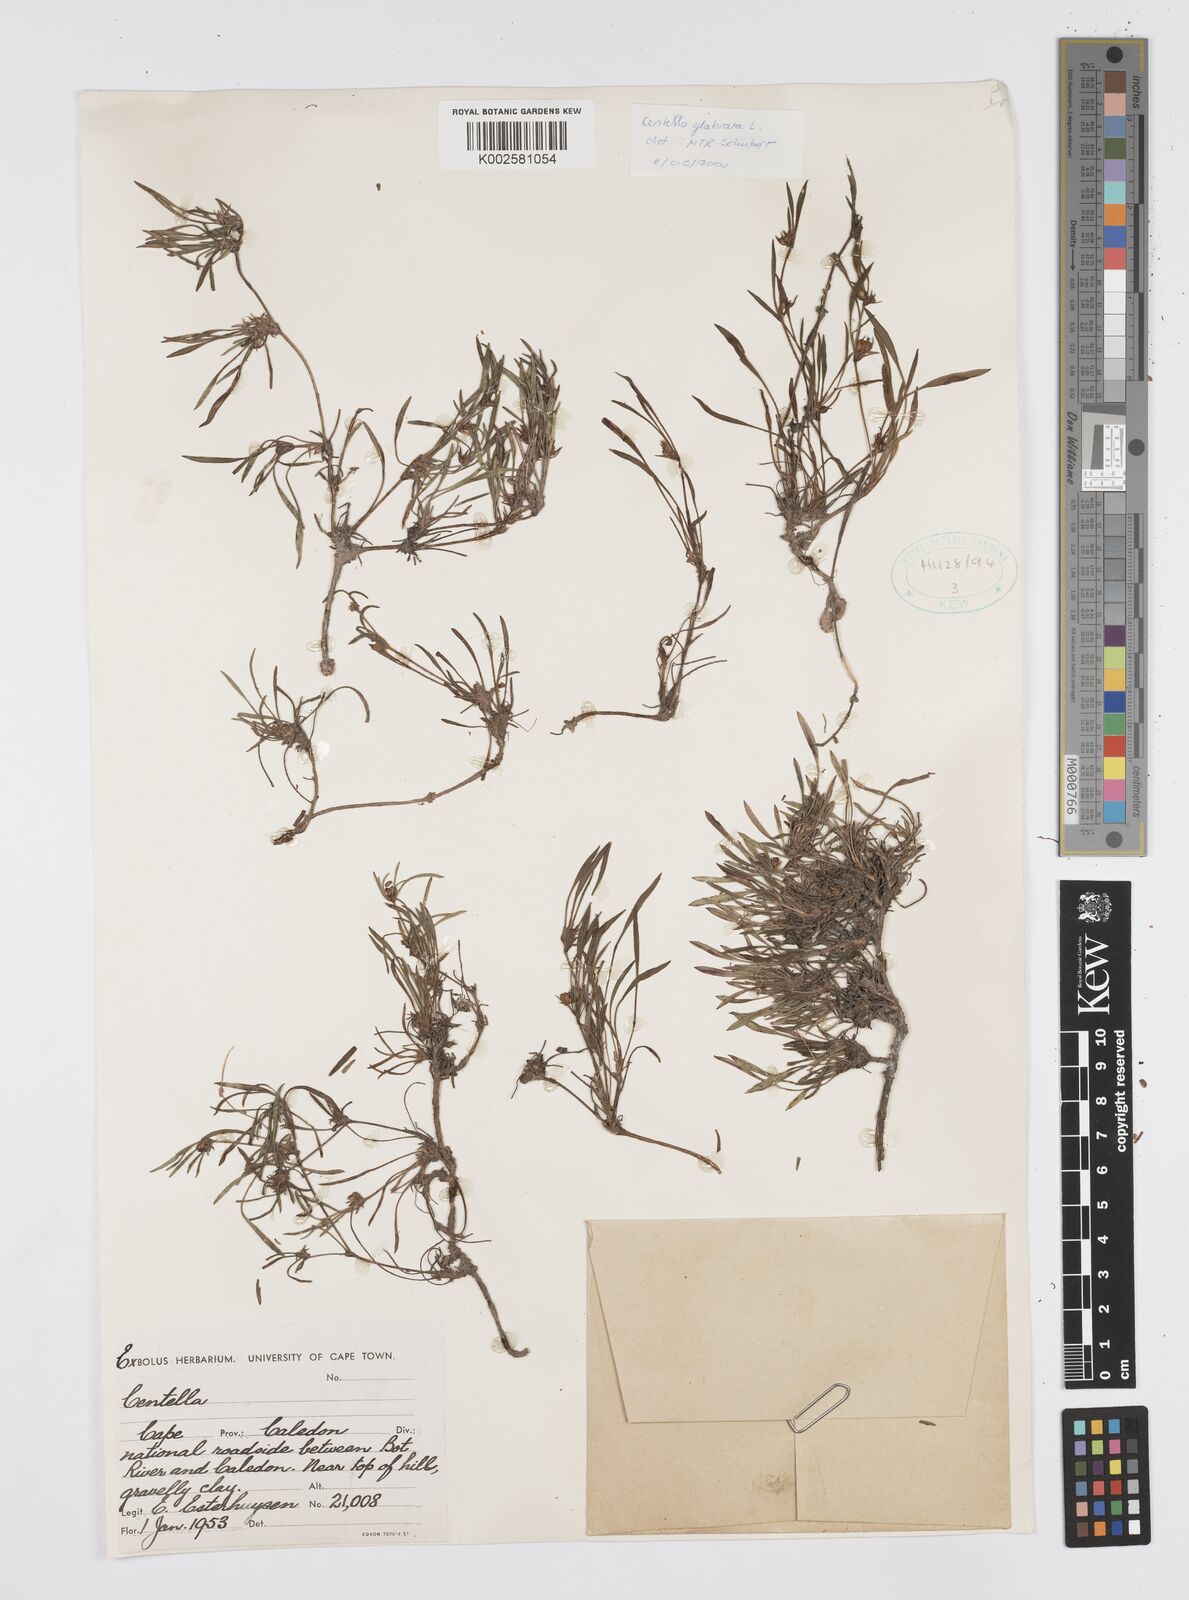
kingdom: Plantae
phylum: Tracheophyta
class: Magnoliopsida
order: Apiales
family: Apiaceae
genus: Centella
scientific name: Centella glabrata
